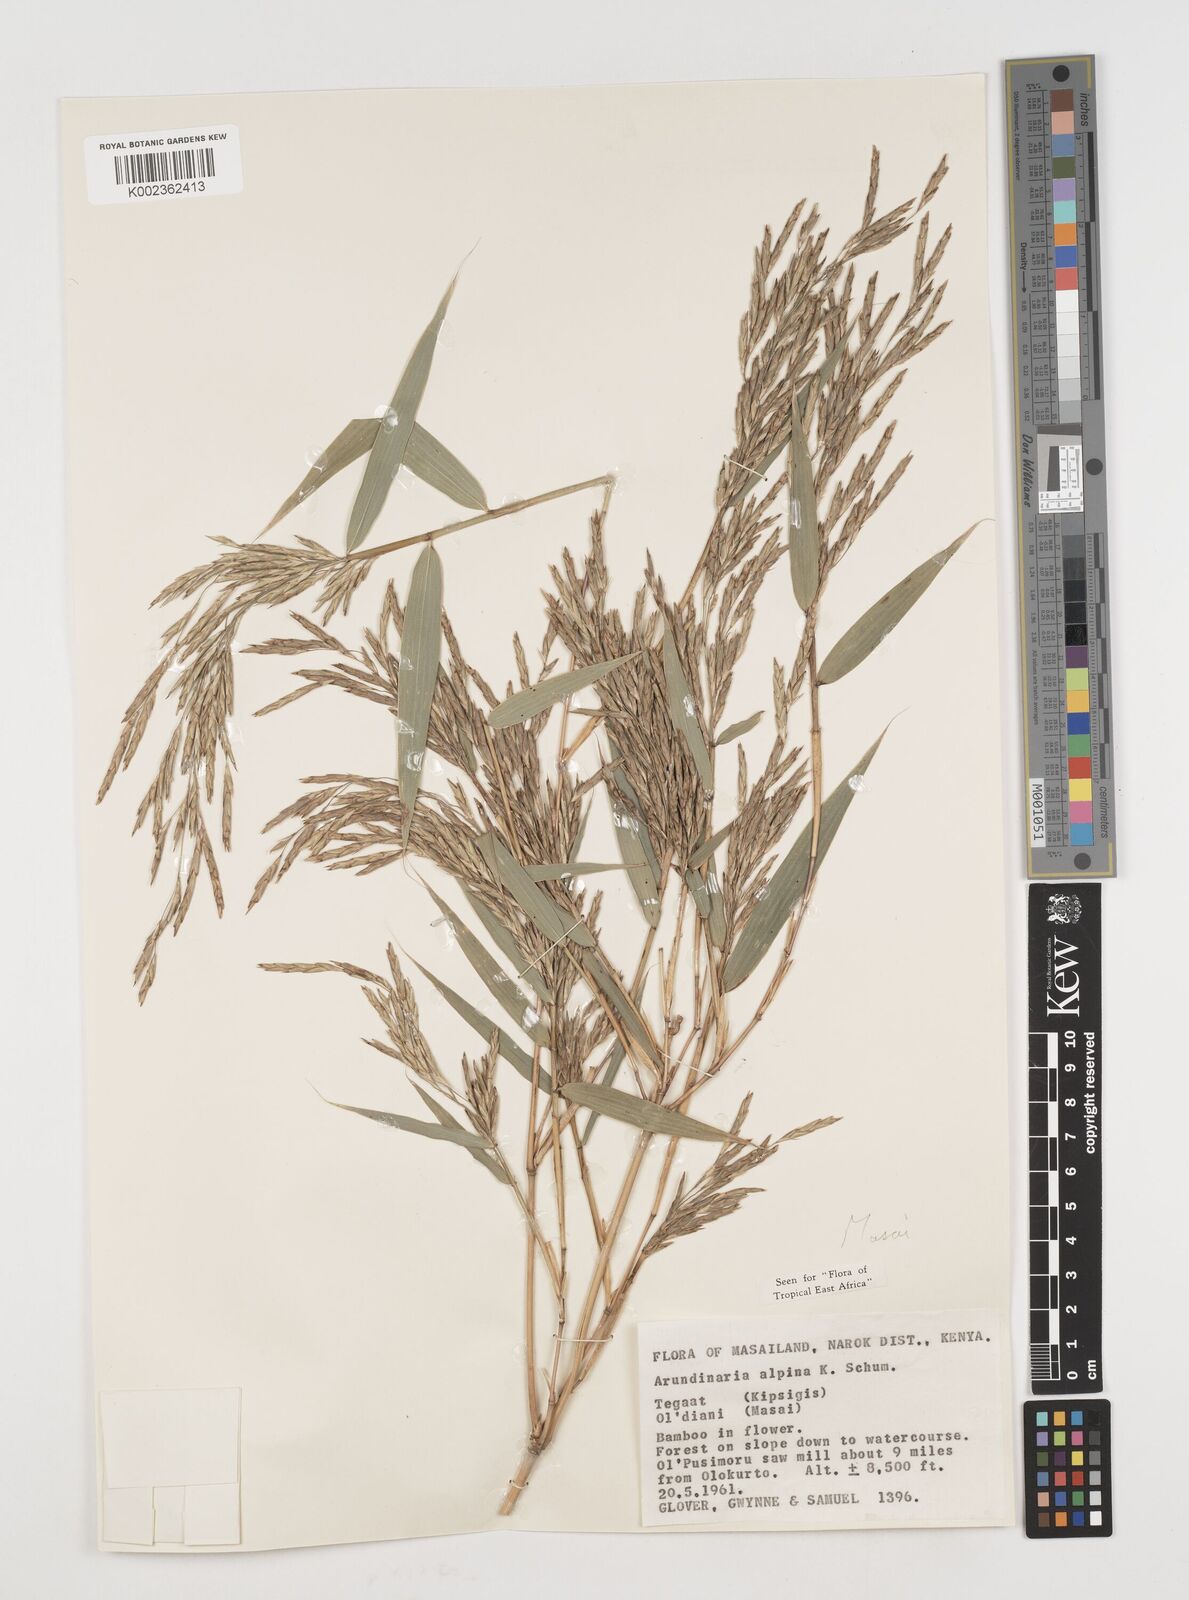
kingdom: Plantae
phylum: Tracheophyta
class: Liliopsida
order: Poales
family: Poaceae
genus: Oldeania
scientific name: Oldeania alpina
